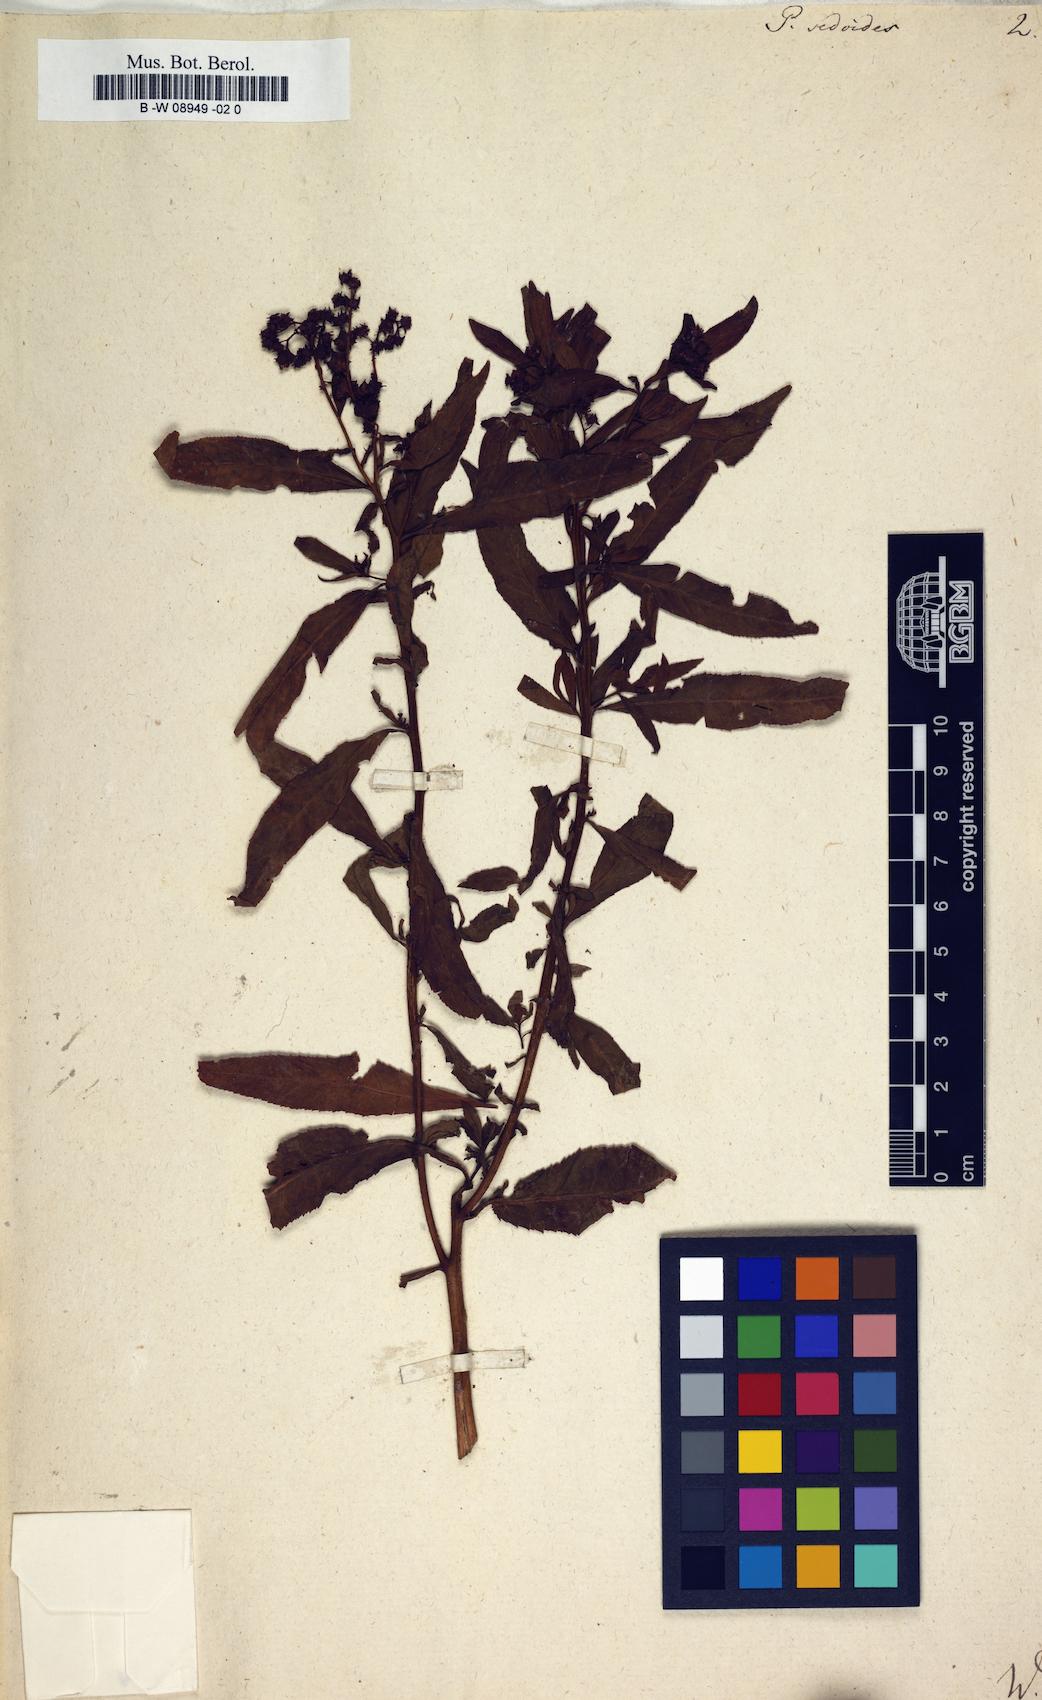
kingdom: Plantae
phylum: Tracheophyta
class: Magnoliopsida
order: Saxifragales
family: Penthoraceae
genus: Penthorum
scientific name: Penthorum sedoides
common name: Ditch stonecrop
